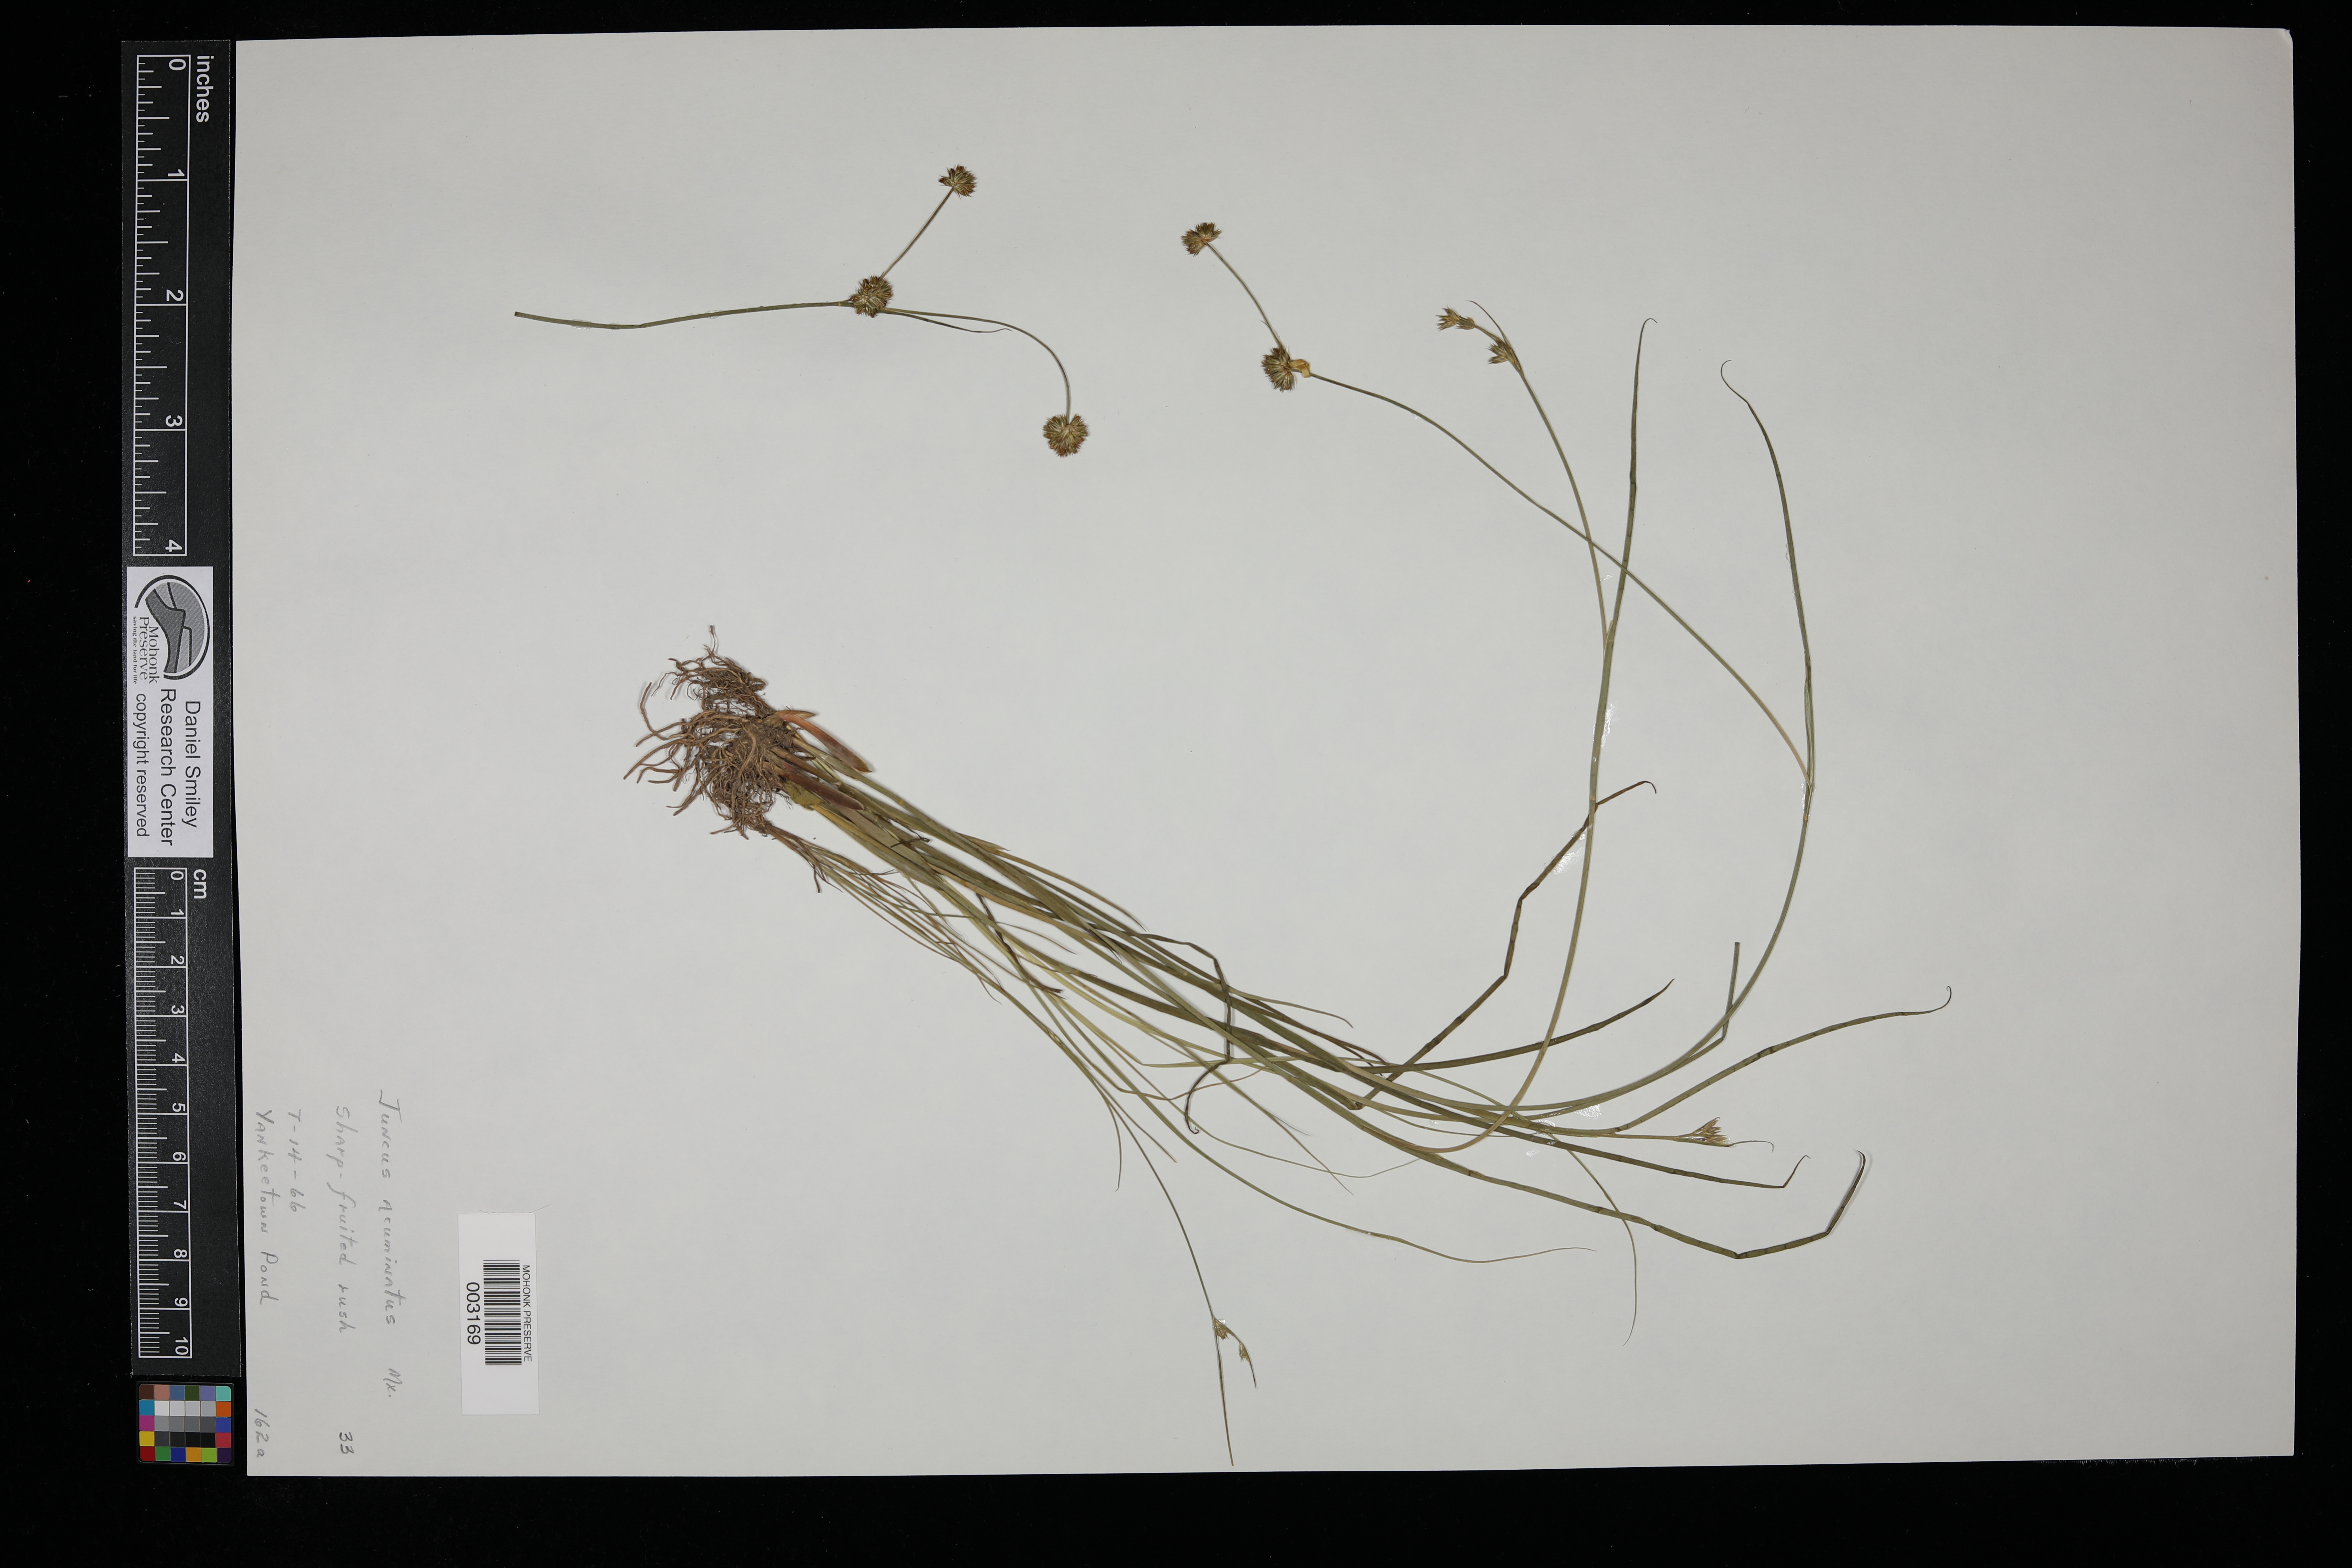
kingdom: Plantae
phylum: Tracheophyta
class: Liliopsida
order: Poales
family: Juncaceae
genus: Juncus
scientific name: Juncus acuminatus
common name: Knotty-leaved rush
